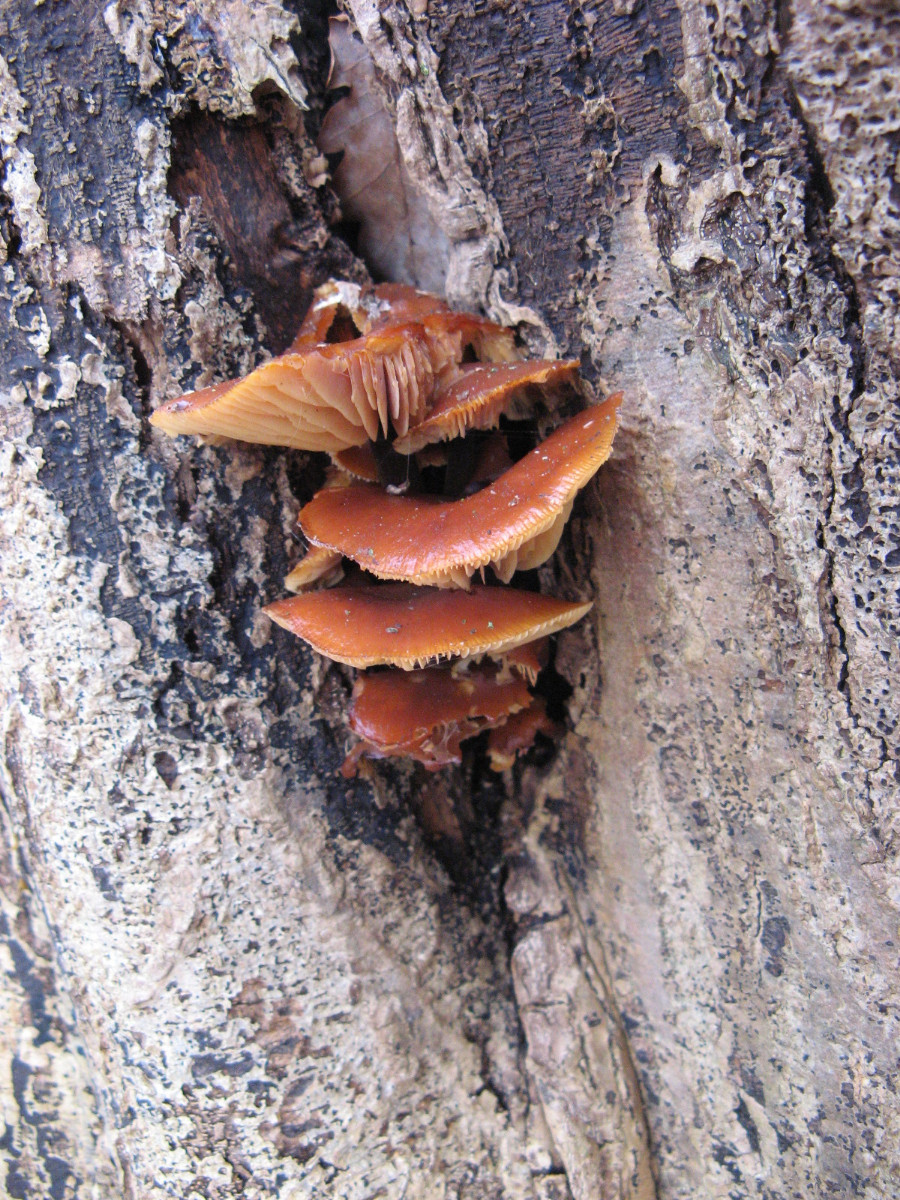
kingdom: Fungi
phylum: Basidiomycota
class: Agaricomycetes
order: Agaricales
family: Physalacriaceae
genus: Flammulina
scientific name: Flammulina velutipes
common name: gul fløjlsfod
